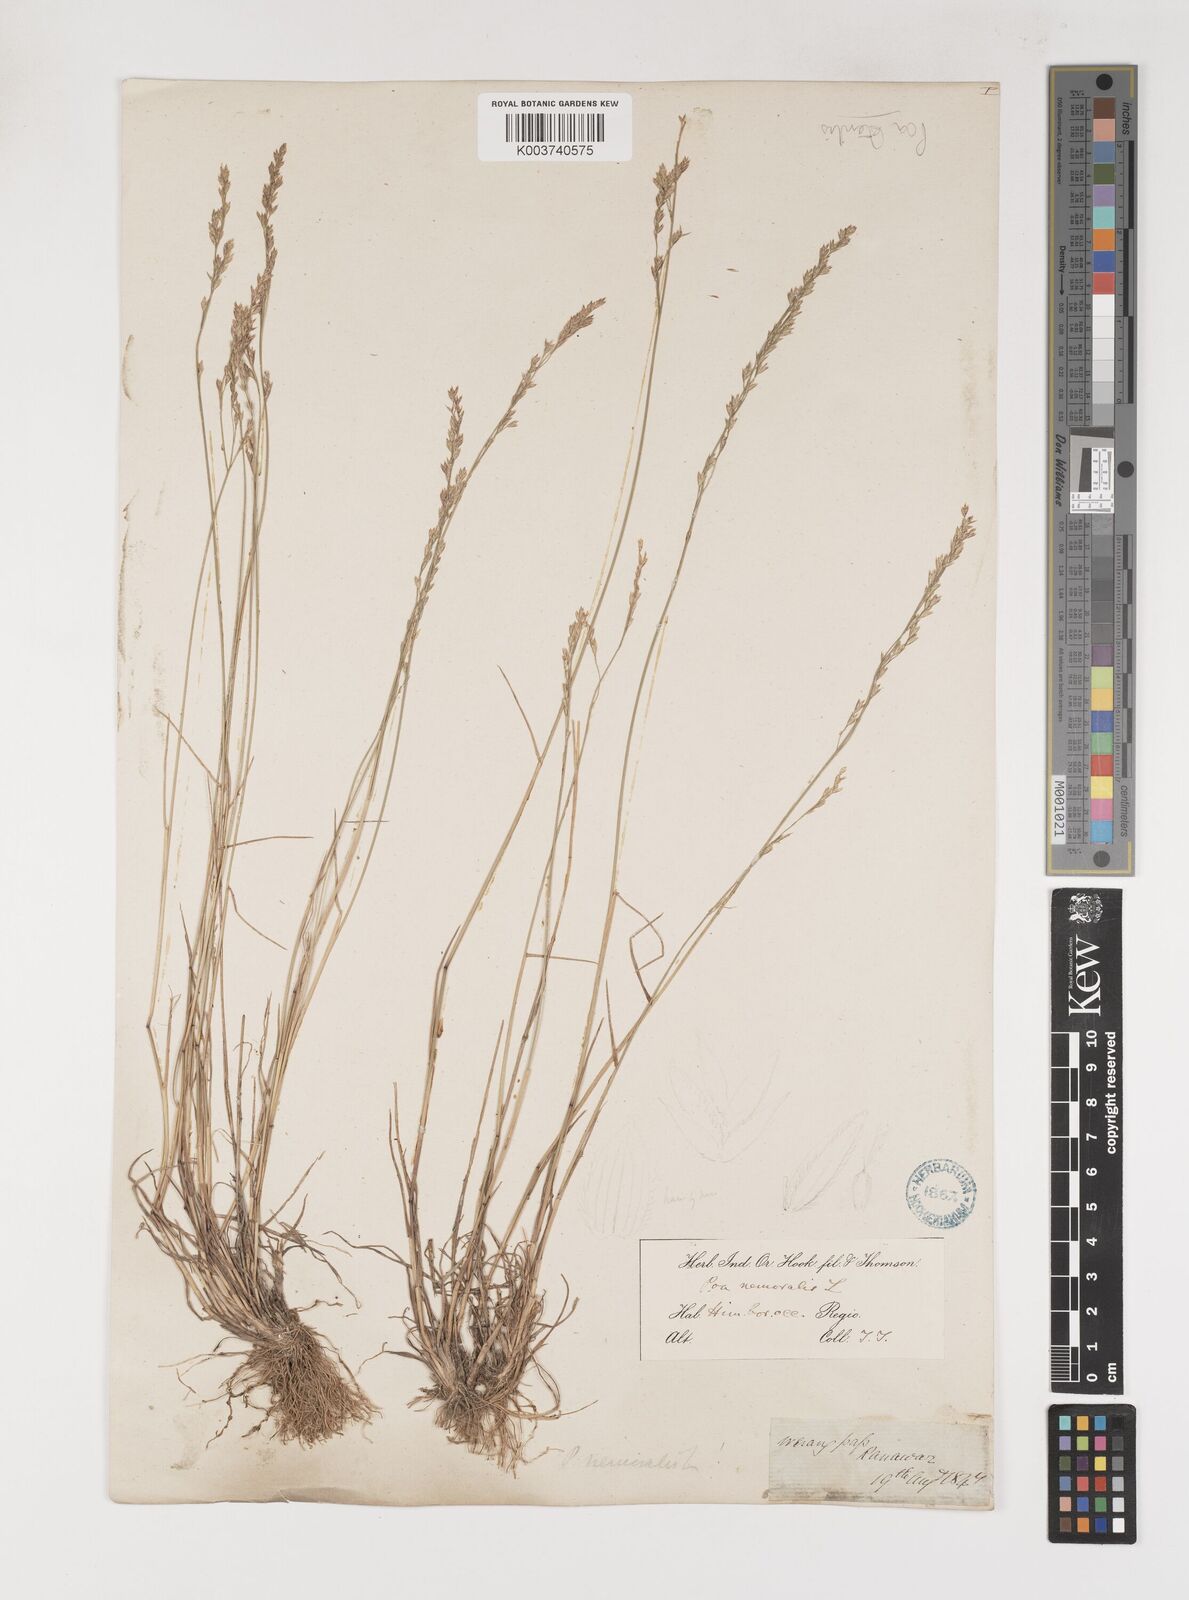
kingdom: Plantae
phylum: Tracheophyta
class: Liliopsida
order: Poales
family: Poaceae
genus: Poa
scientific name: Poa sterilis
